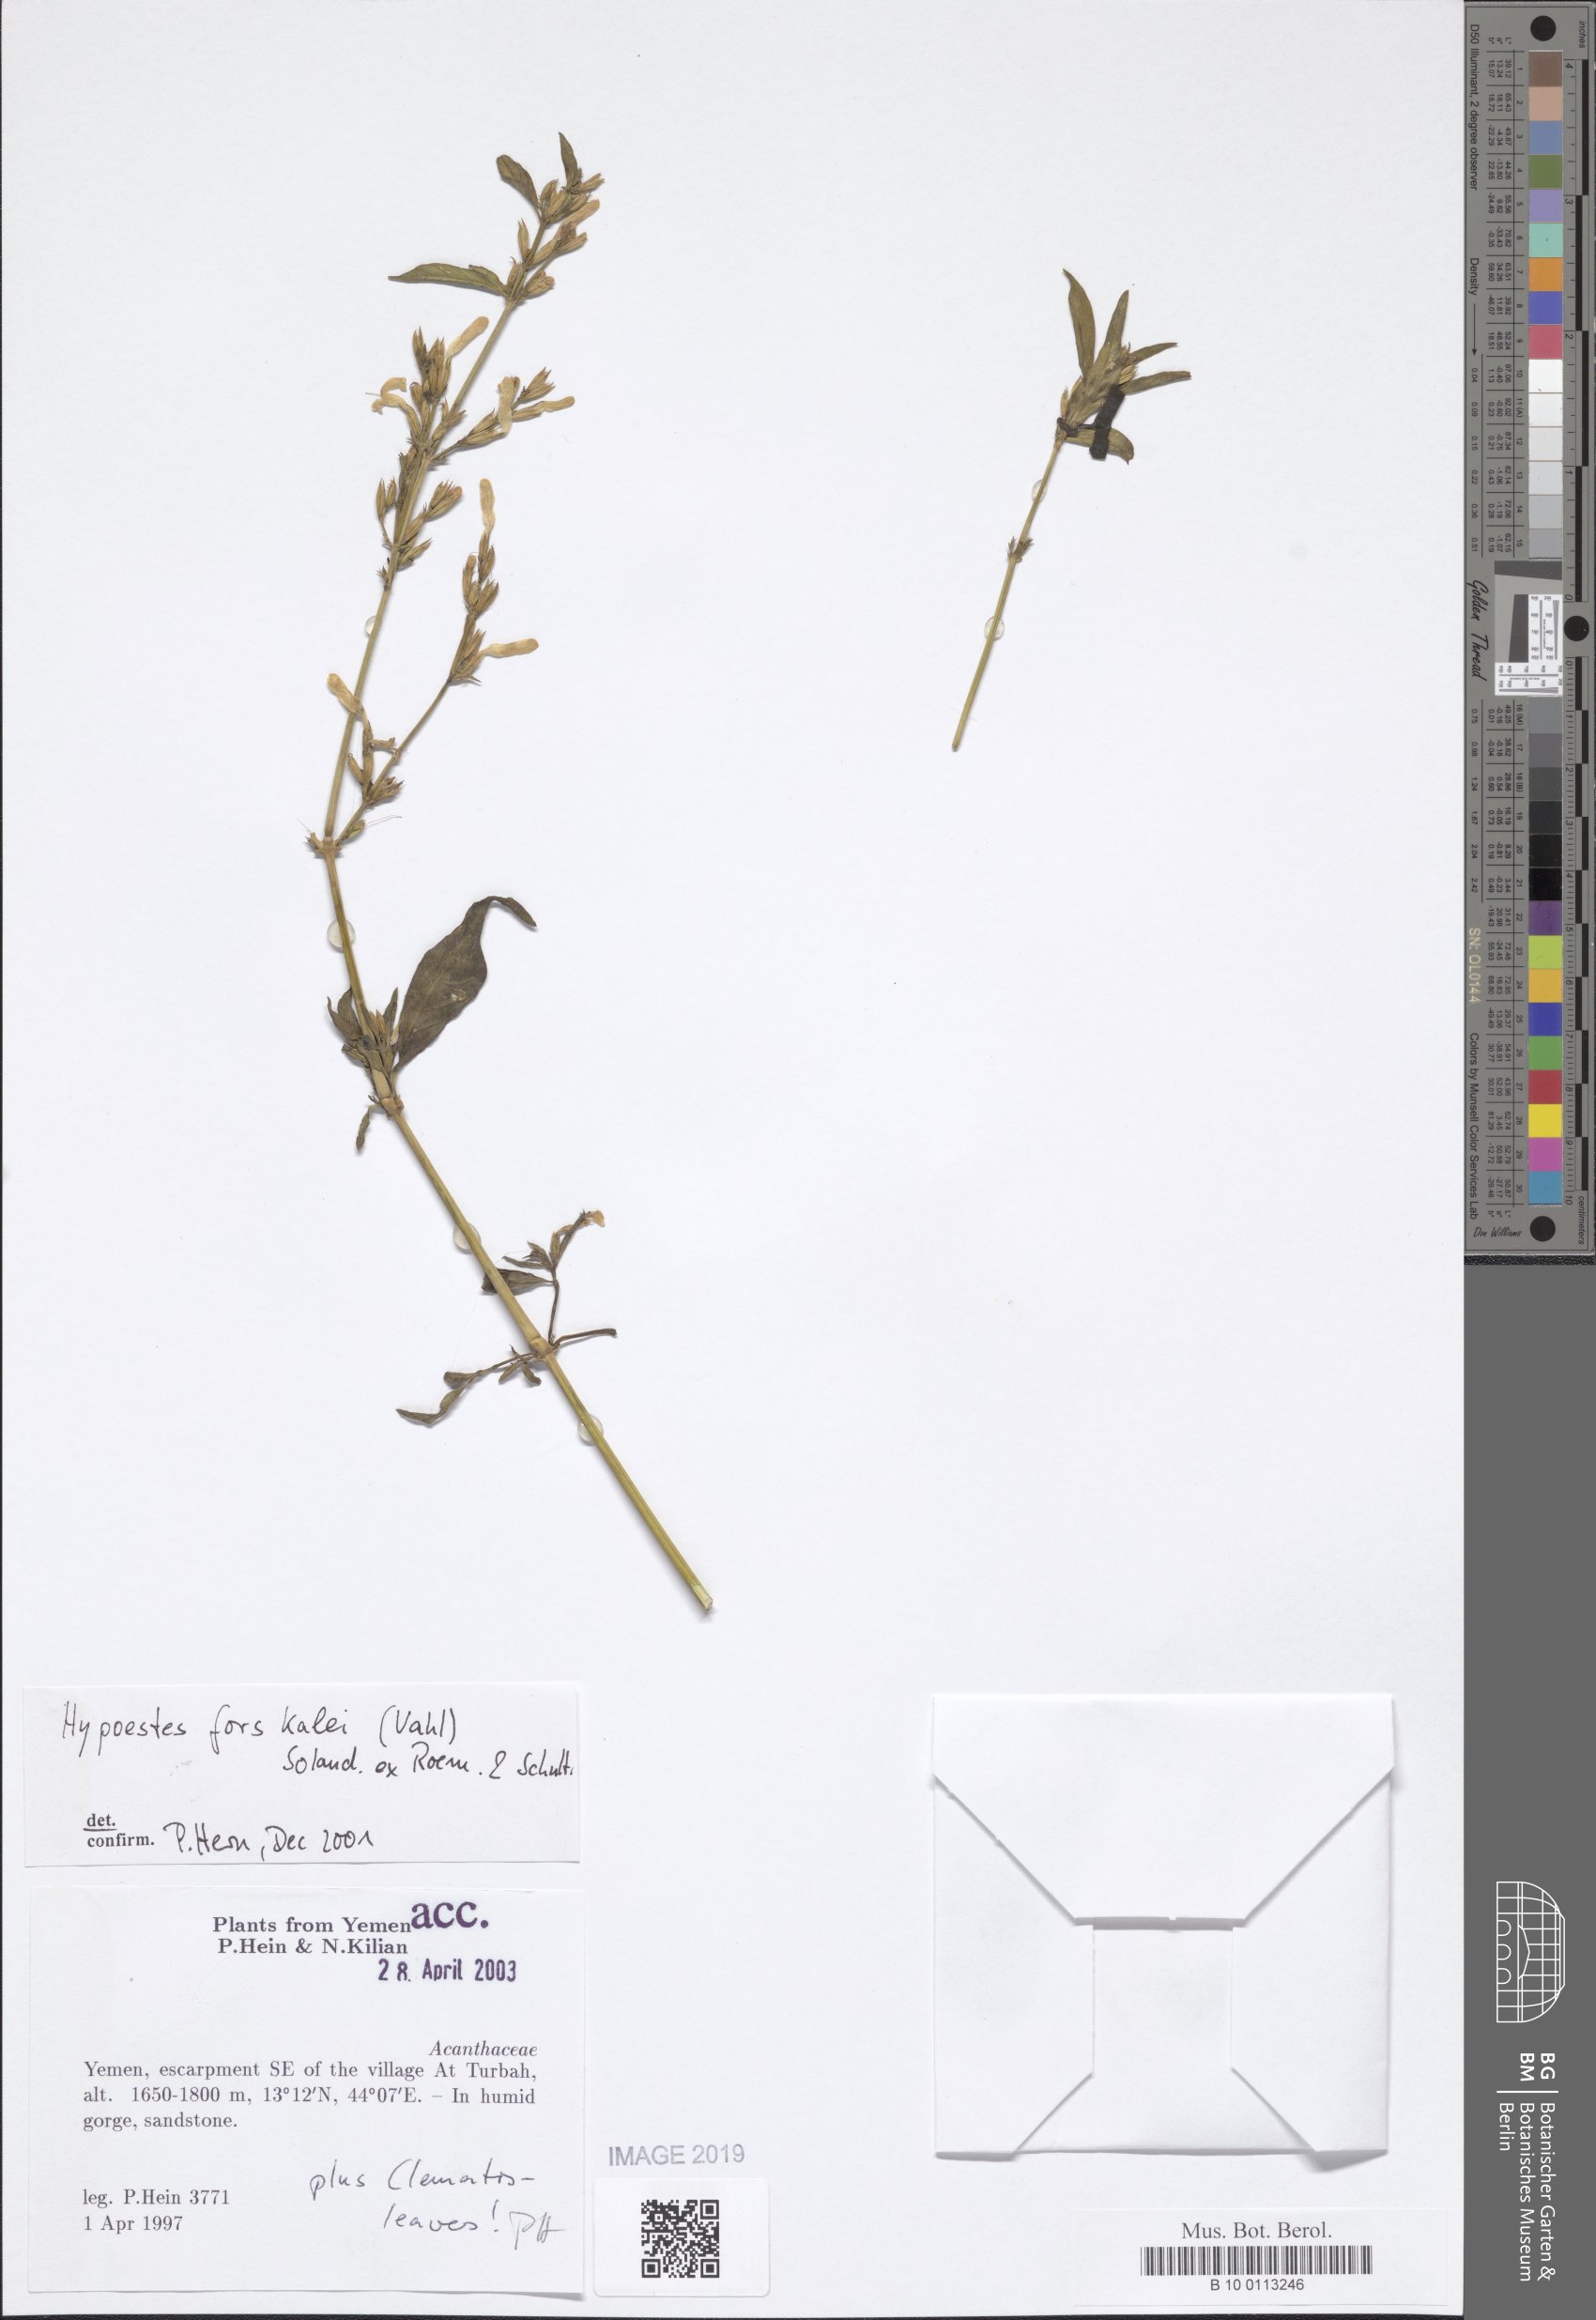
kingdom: Plantae
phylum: Tracheophyta
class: Magnoliopsida
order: Lamiales
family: Acanthaceae
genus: Hypoestes
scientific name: Hypoestes forskaolii
